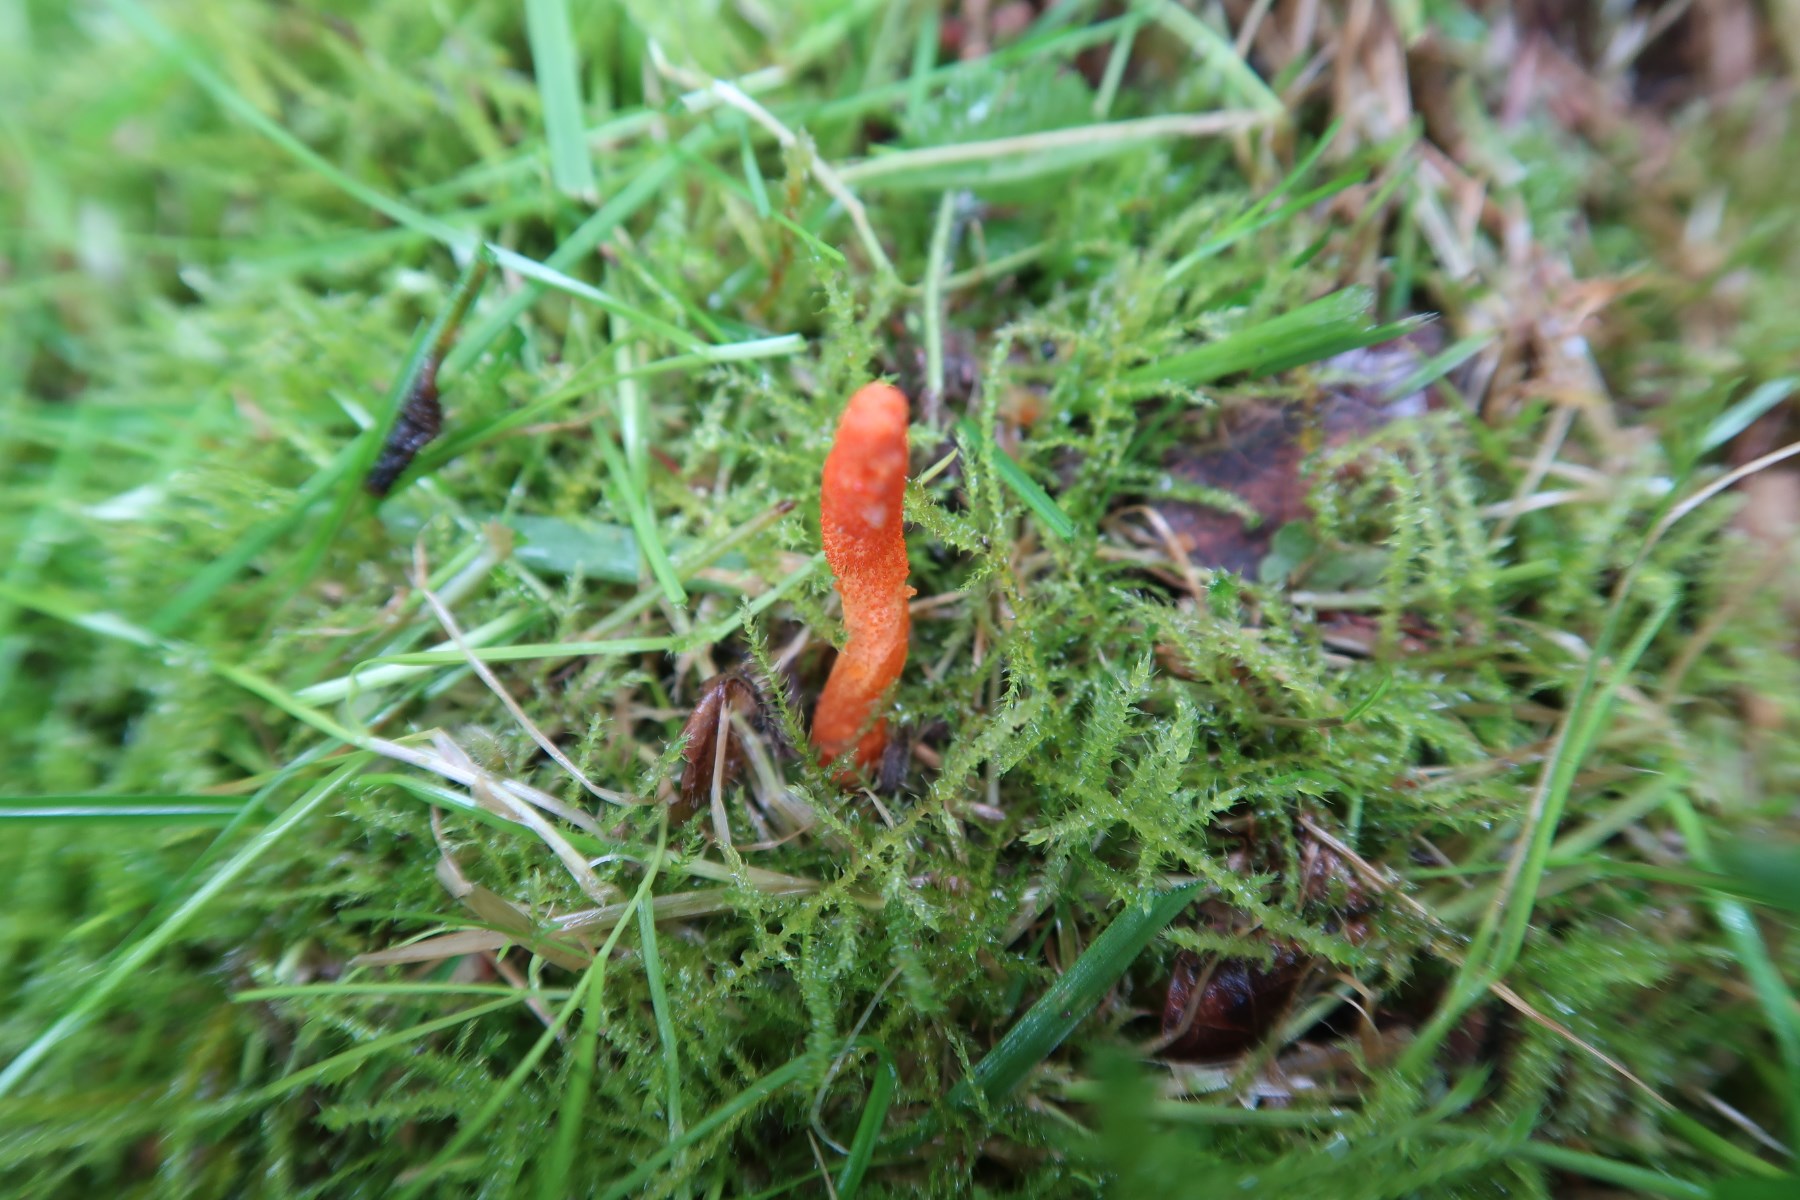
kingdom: Fungi
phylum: Ascomycota
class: Sordariomycetes
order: Hypocreales
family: Cordycipitaceae
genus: Cordyceps
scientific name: Cordyceps militaris
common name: puppe-snyltekølle
